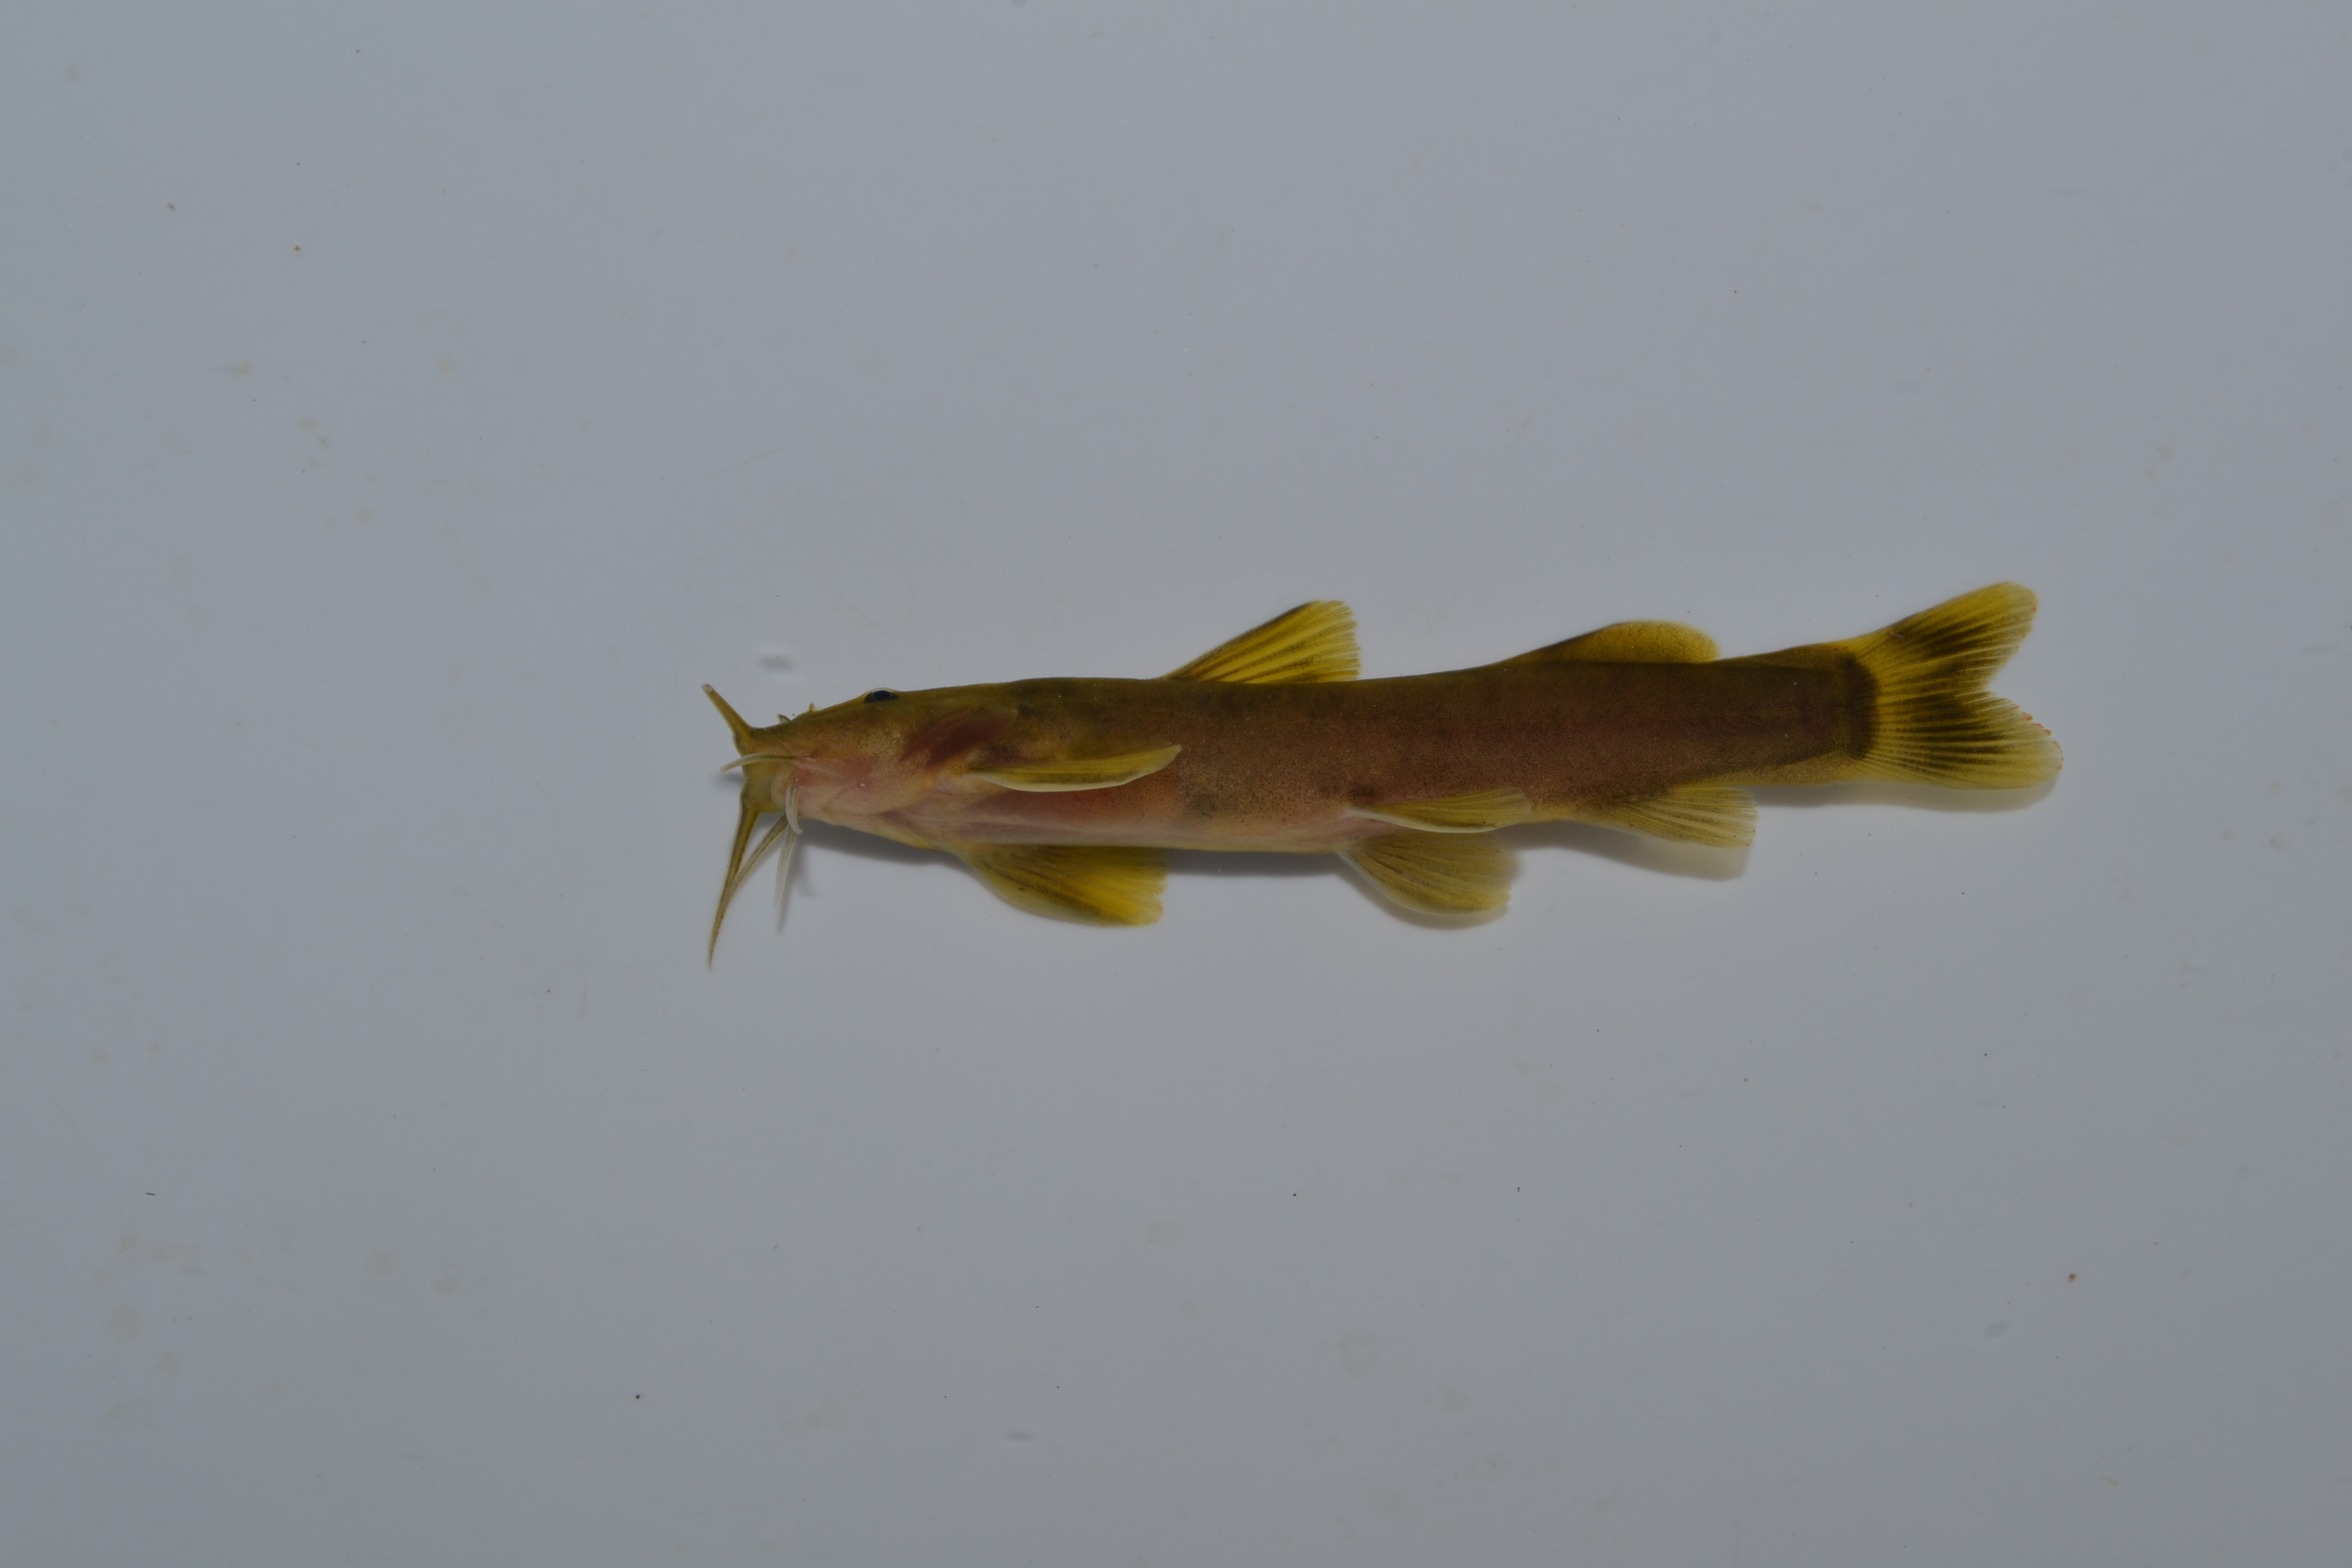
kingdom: Animalia
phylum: Chordata
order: Siluriformes
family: Amphiliidae
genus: Amphilius
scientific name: Amphilius uranoscopus
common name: Stargazer mountain catfish
